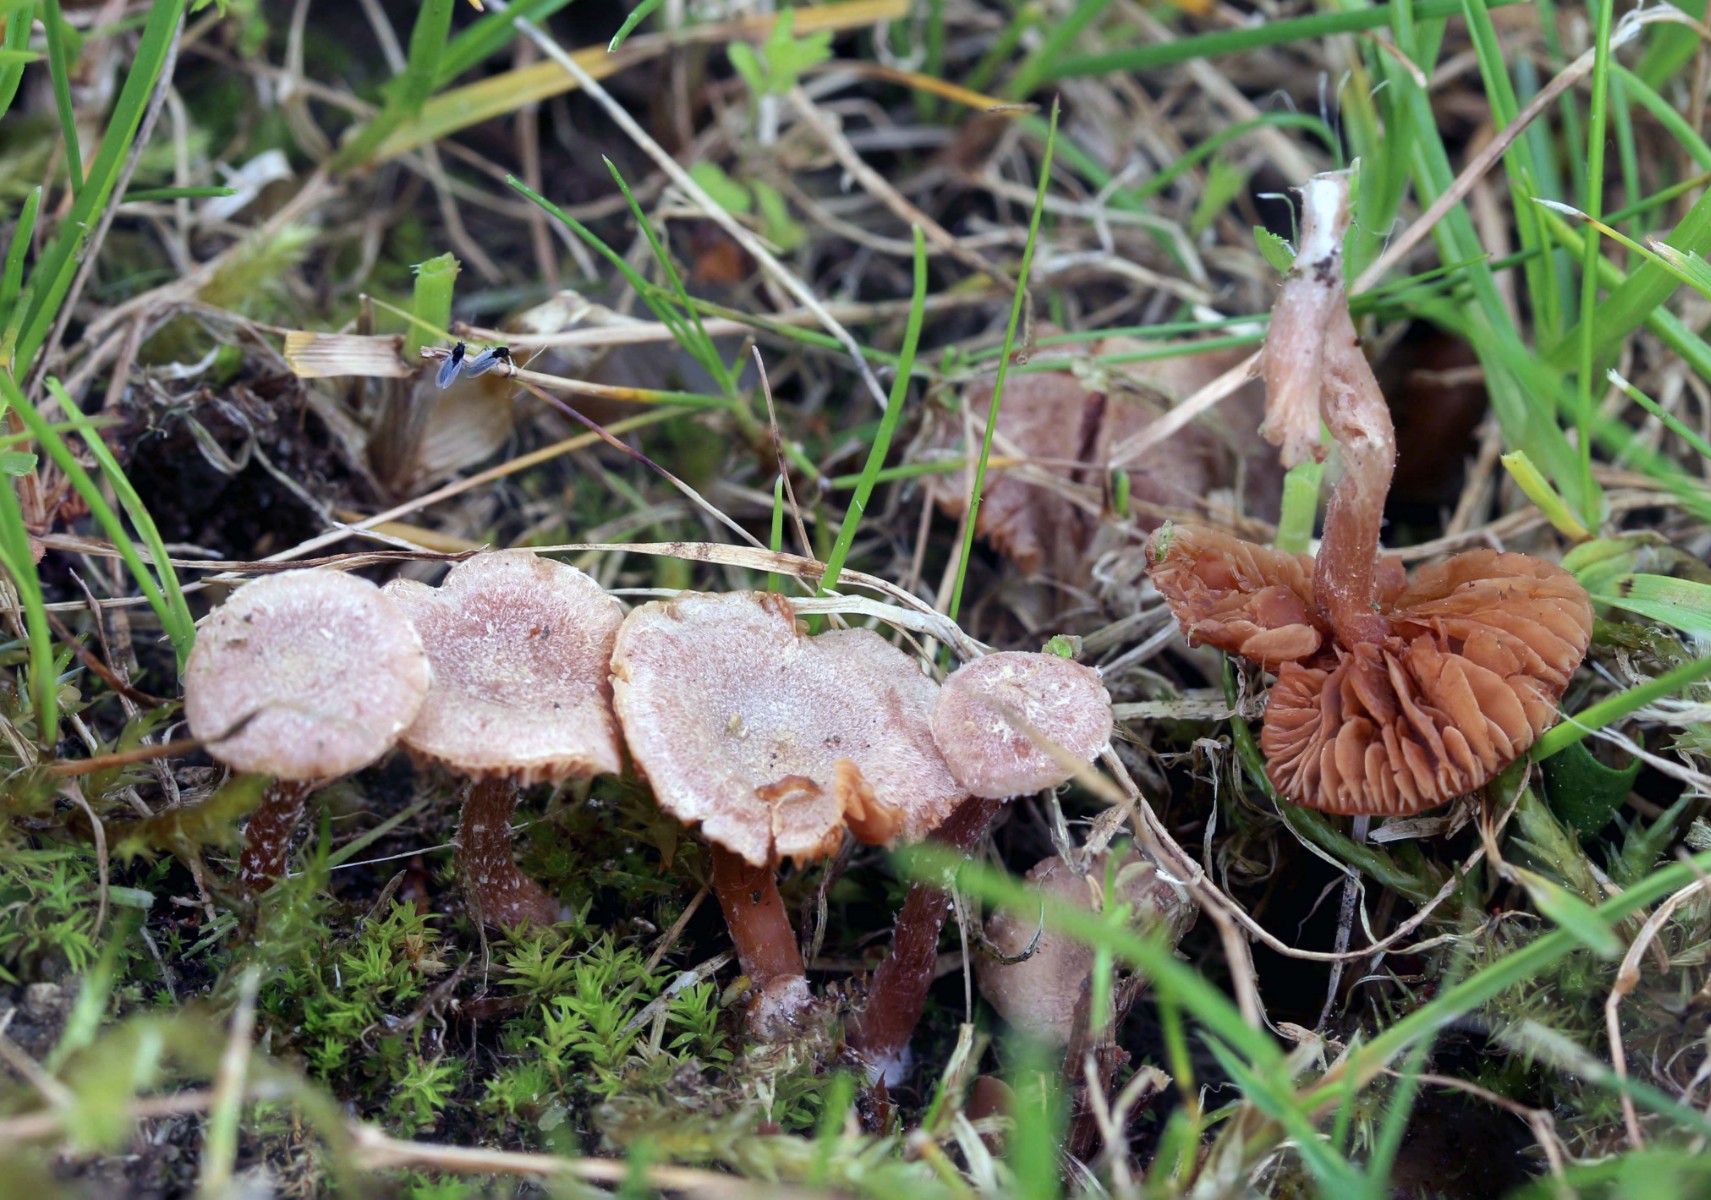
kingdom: Fungi
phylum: Basidiomycota
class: Agaricomycetes
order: Agaricales
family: Tubariaceae
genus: Tubaria
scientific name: Tubaria conspersa
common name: bleg fnughat
